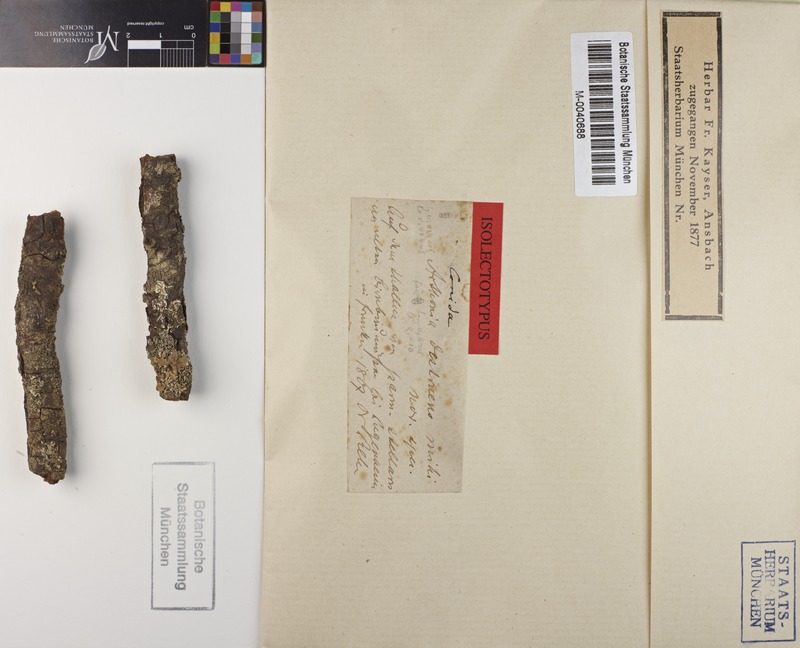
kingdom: Fungi
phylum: Ascomycota
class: Lecanoromycetes
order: Caliciales
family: Physciaceae
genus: Physcia
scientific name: Physcia stellaris
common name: Star rosette lichen
